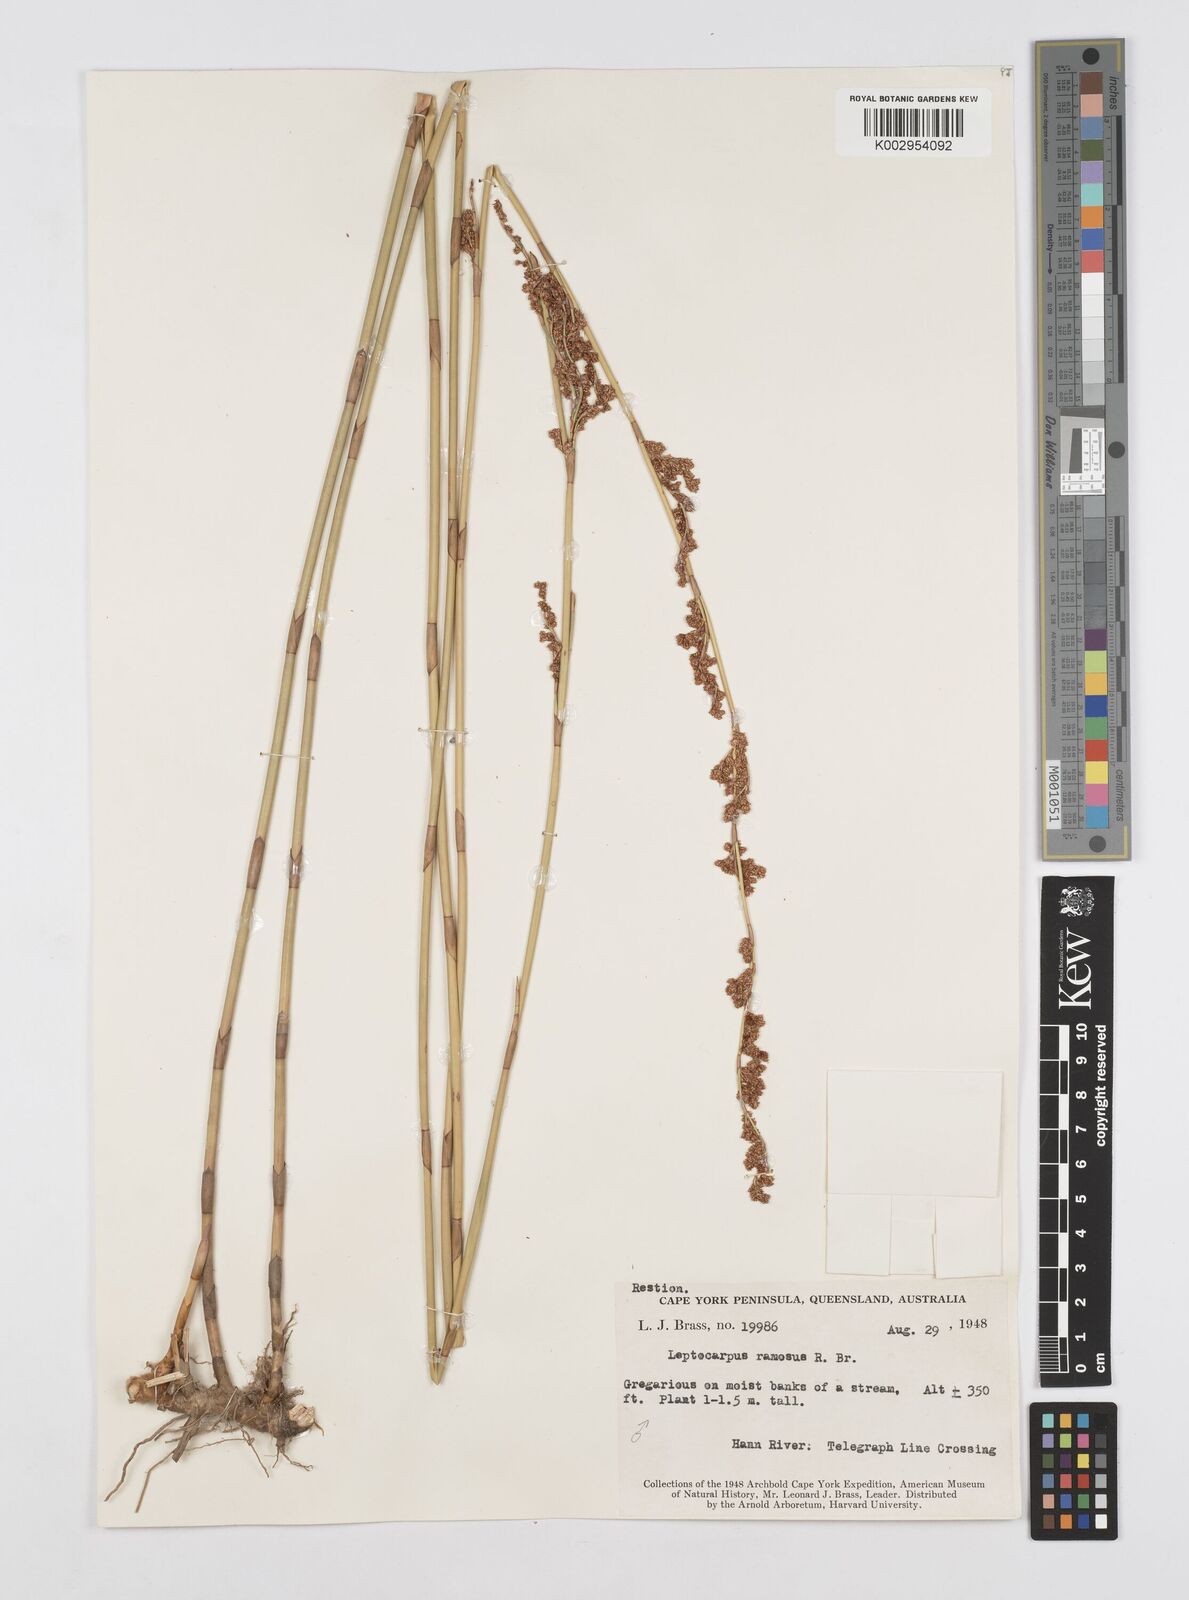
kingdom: Plantae
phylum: Tracheophyta
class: Liliopsida
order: Poales
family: Restionaceae
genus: Dapsilanthus
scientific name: Dapsilanthus ramosus
